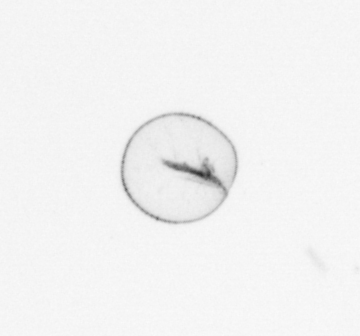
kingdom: Chromista
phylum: Myzozoa
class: Dinophyceae
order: Noctilucales
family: Noctilucaceae
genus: Noctiluca
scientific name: Noctiluca scintillans
